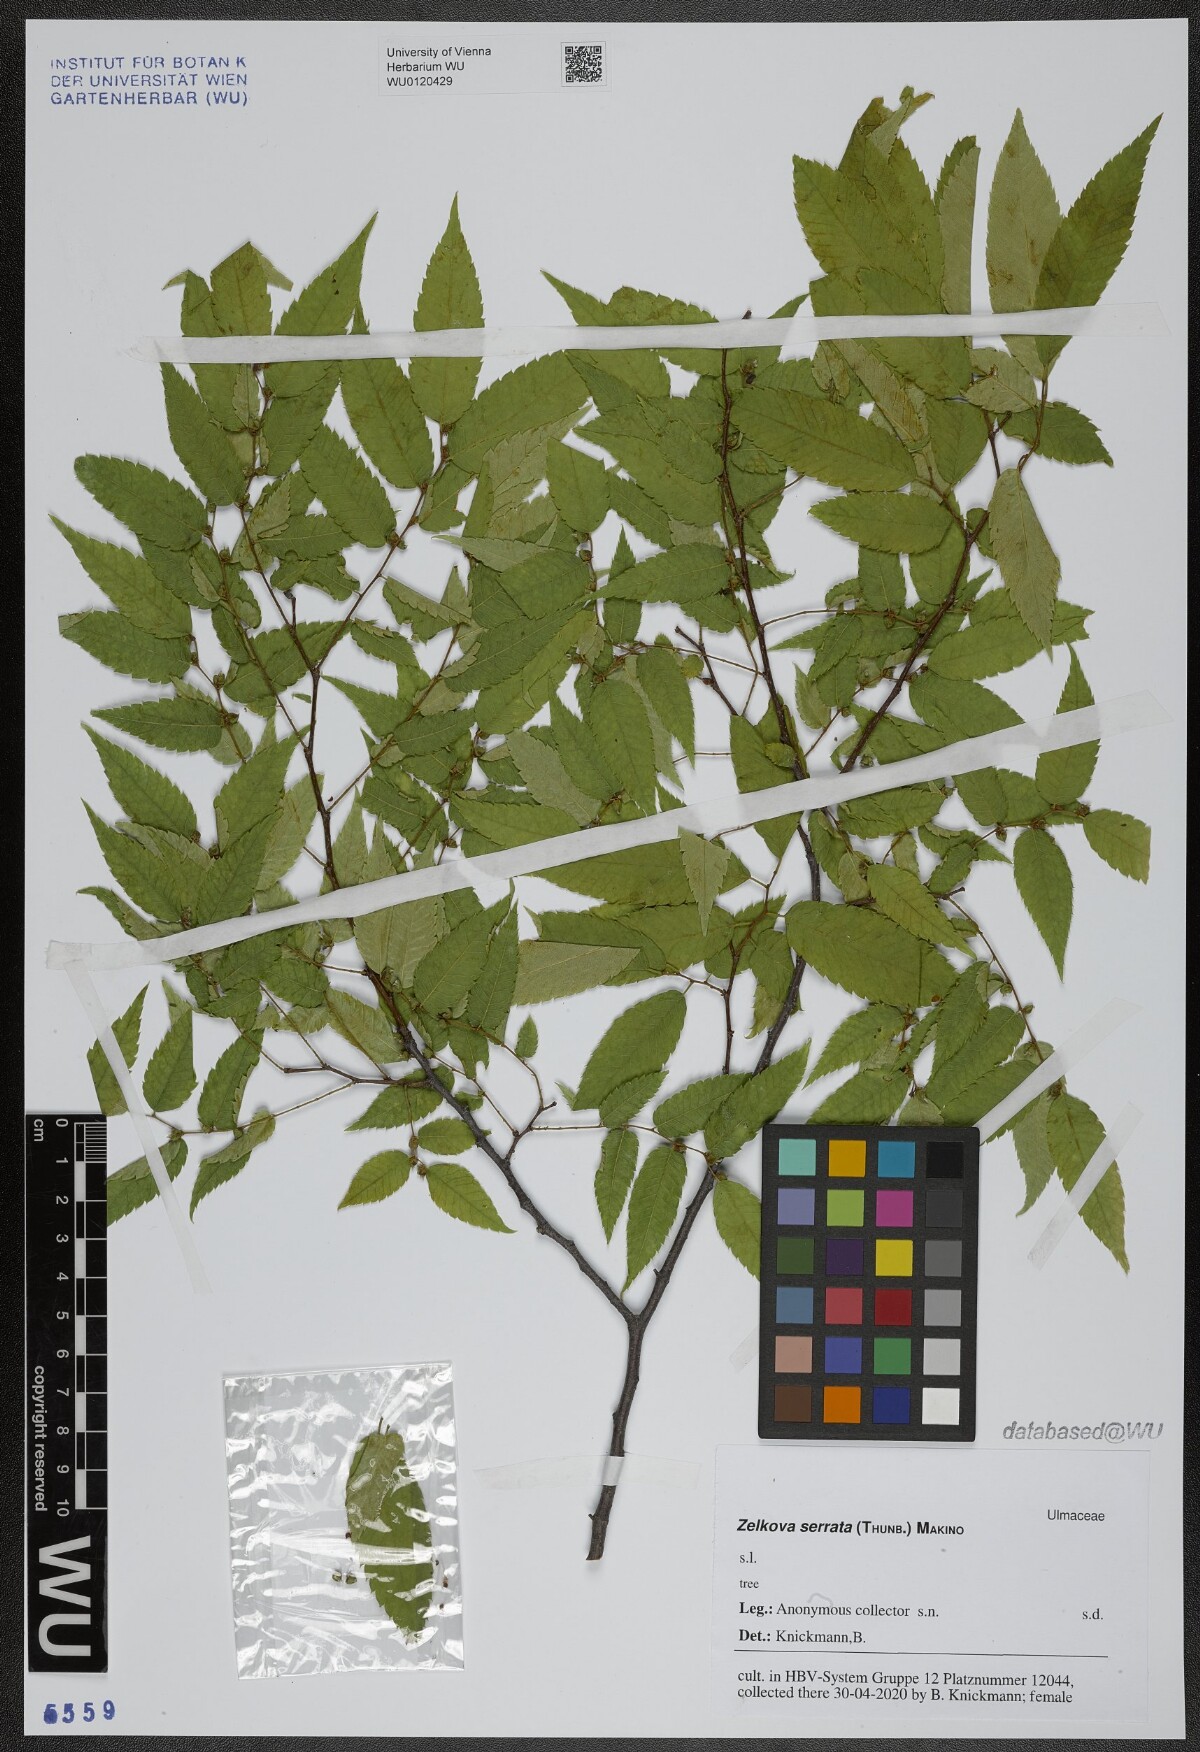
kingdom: Plantae
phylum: Tracheophyta
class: Magnoliopsida
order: Rosales
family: Ulmaceae
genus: Zelkova
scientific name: Zelkova serrata
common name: Japanese zelkova
